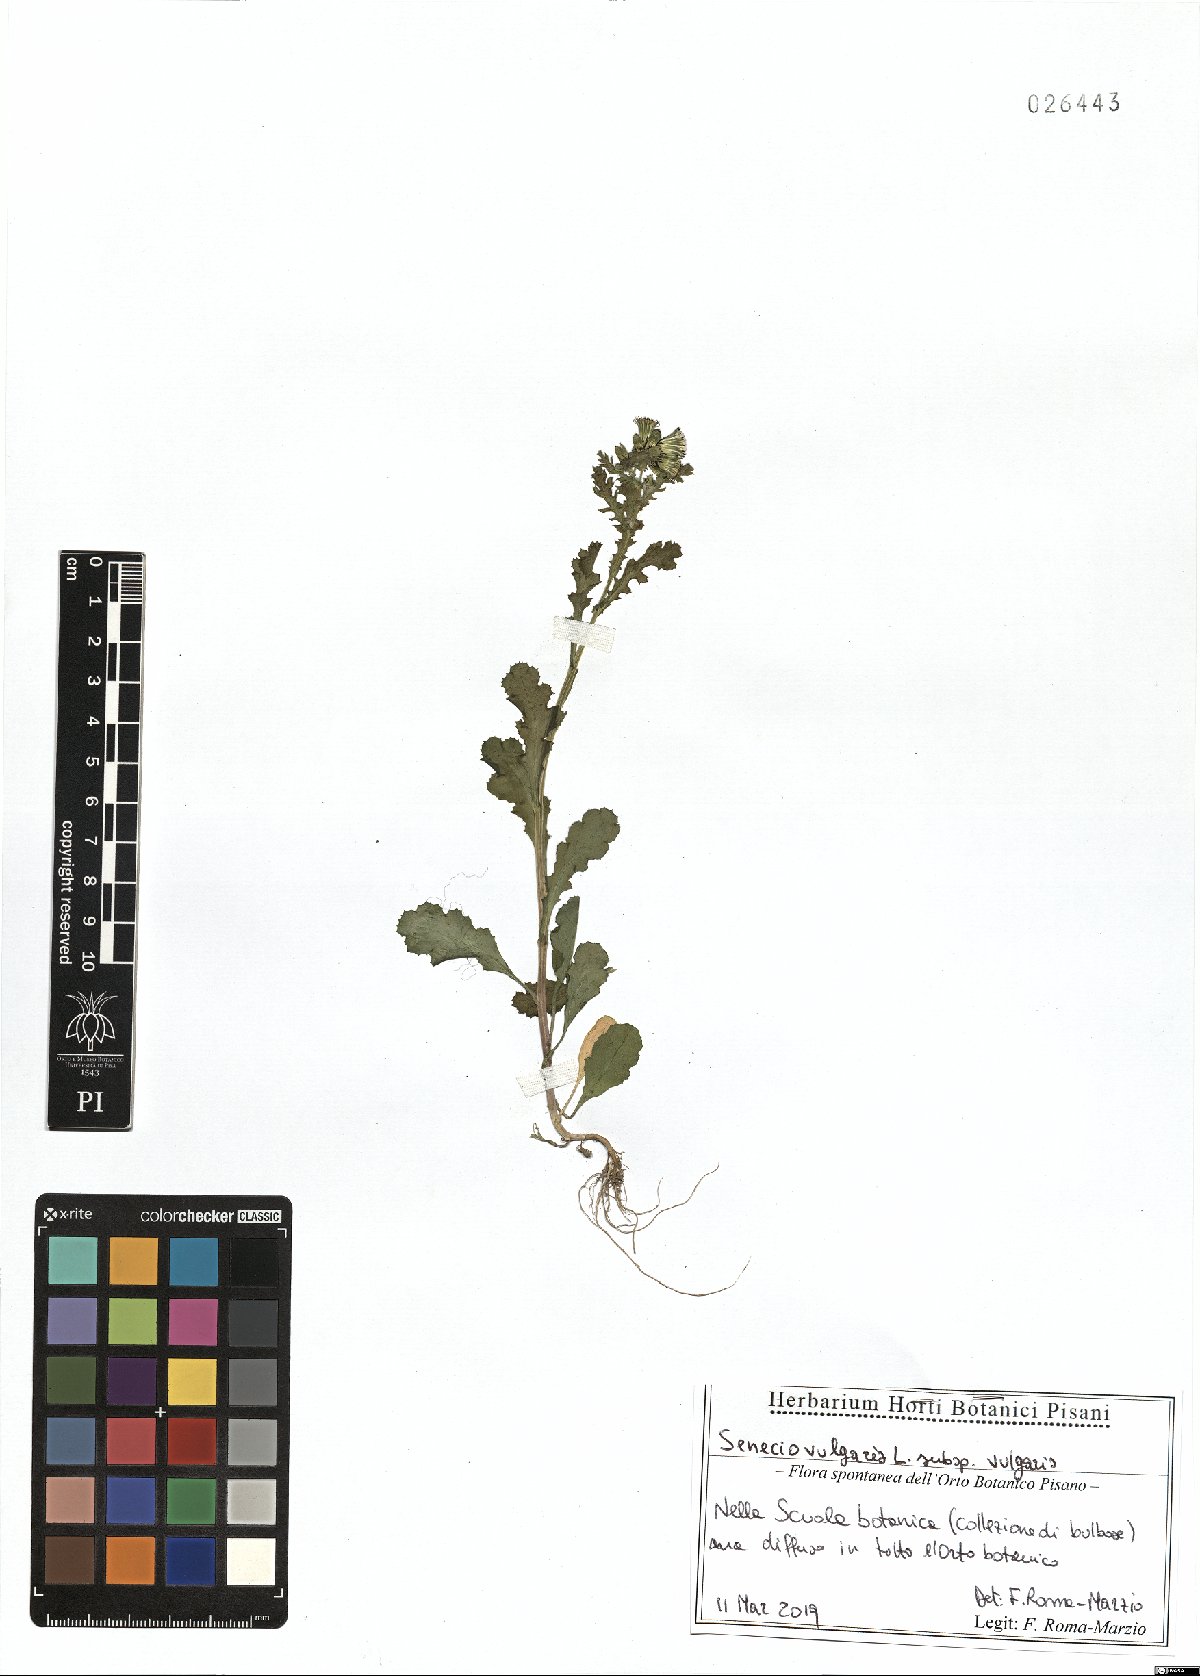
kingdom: Plantae
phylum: Tracheophyta
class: Magnoliopsida
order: Asterales
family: Asteraceae
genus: Senecio
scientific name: Senecio vulgaris
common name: Old-man-in-the-spring
